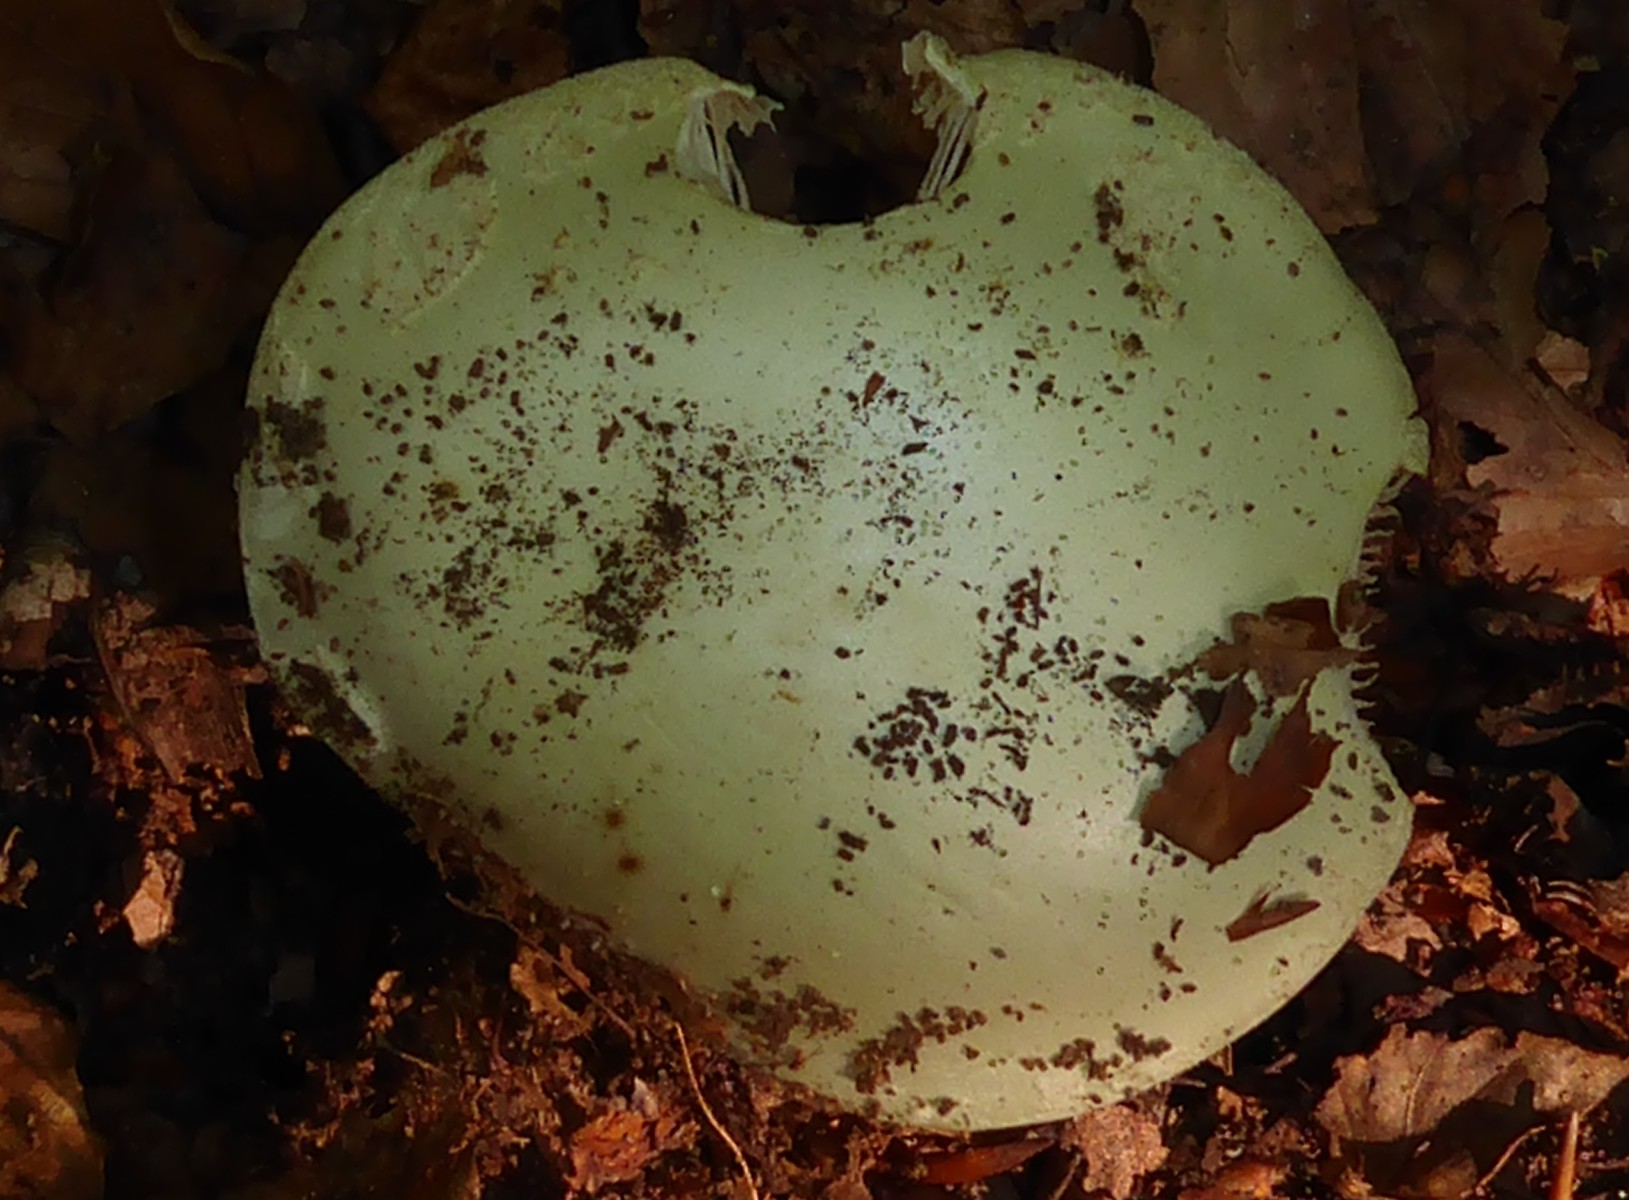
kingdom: Fungi
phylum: Basidiomycota
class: Agaricomycetes
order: Agaricales
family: Amanitaceae
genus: Amanita
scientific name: Amanita phalloides
